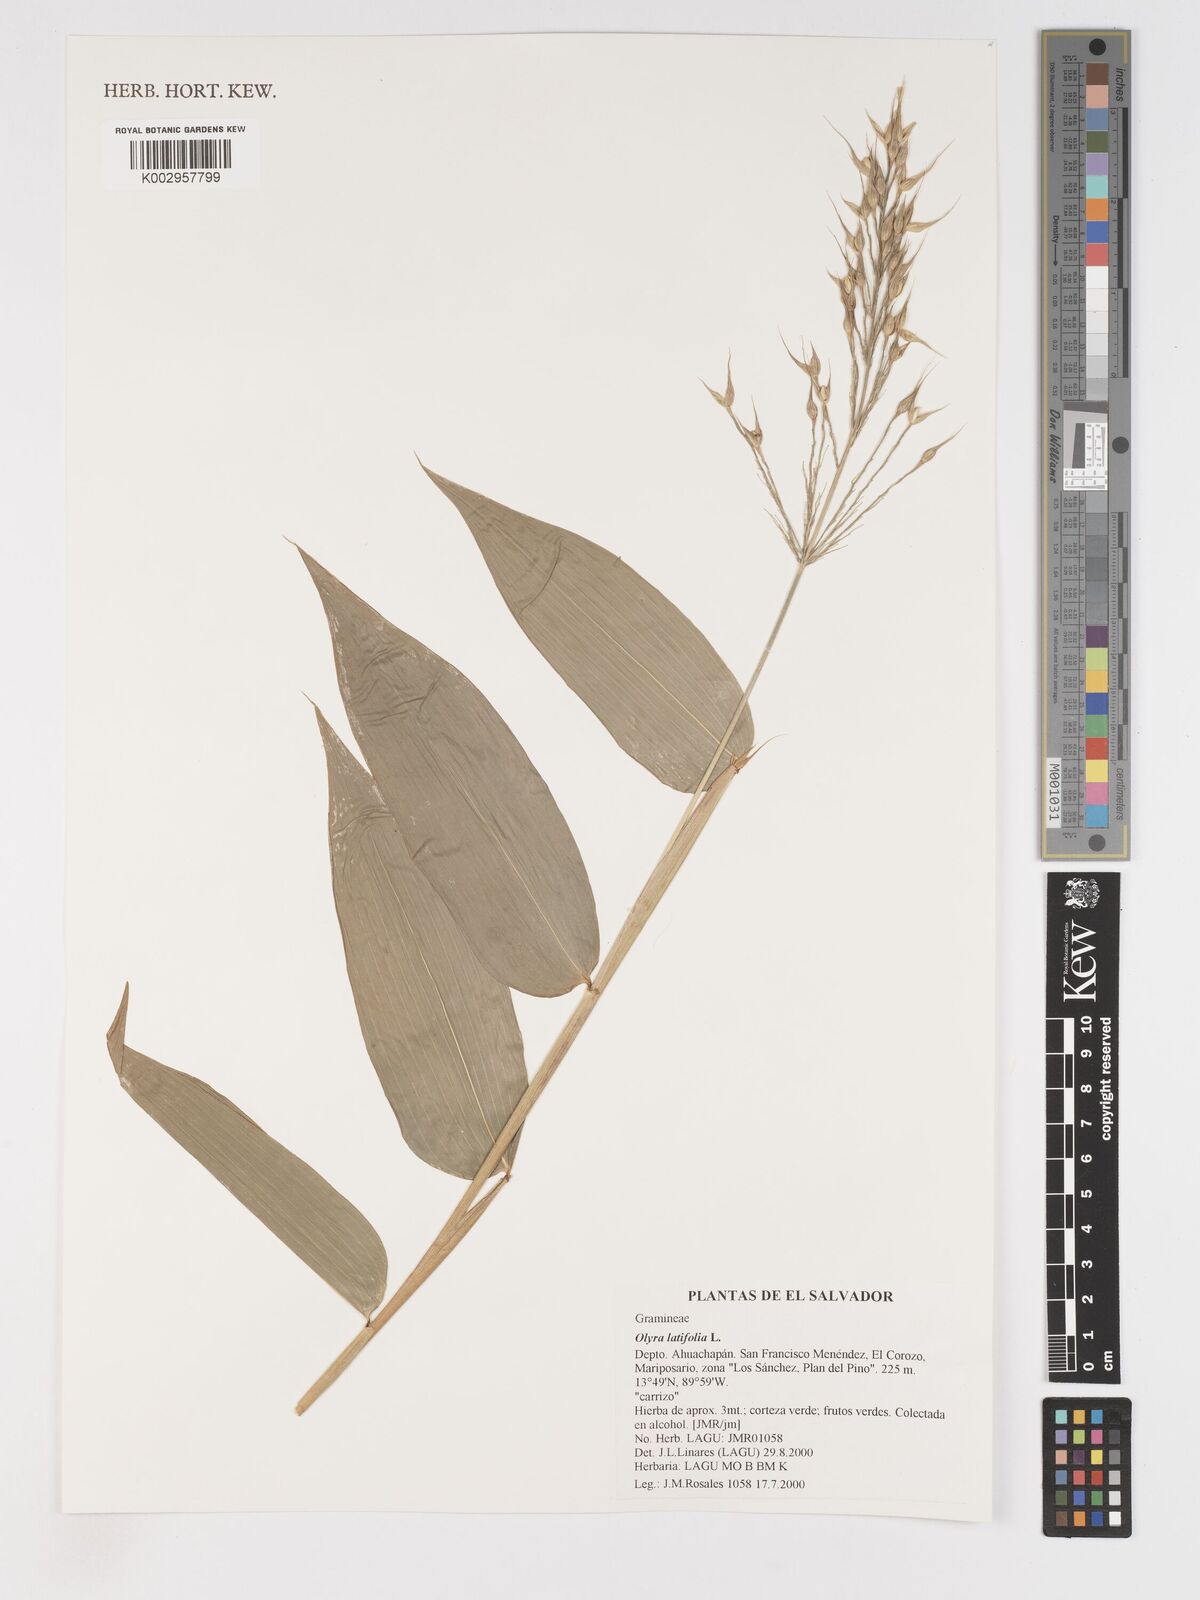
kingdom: Plantae
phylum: Tracheophyta
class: Liliopsida
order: Poales
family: Poaceae
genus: Olyra
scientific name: Olyra latifolia
